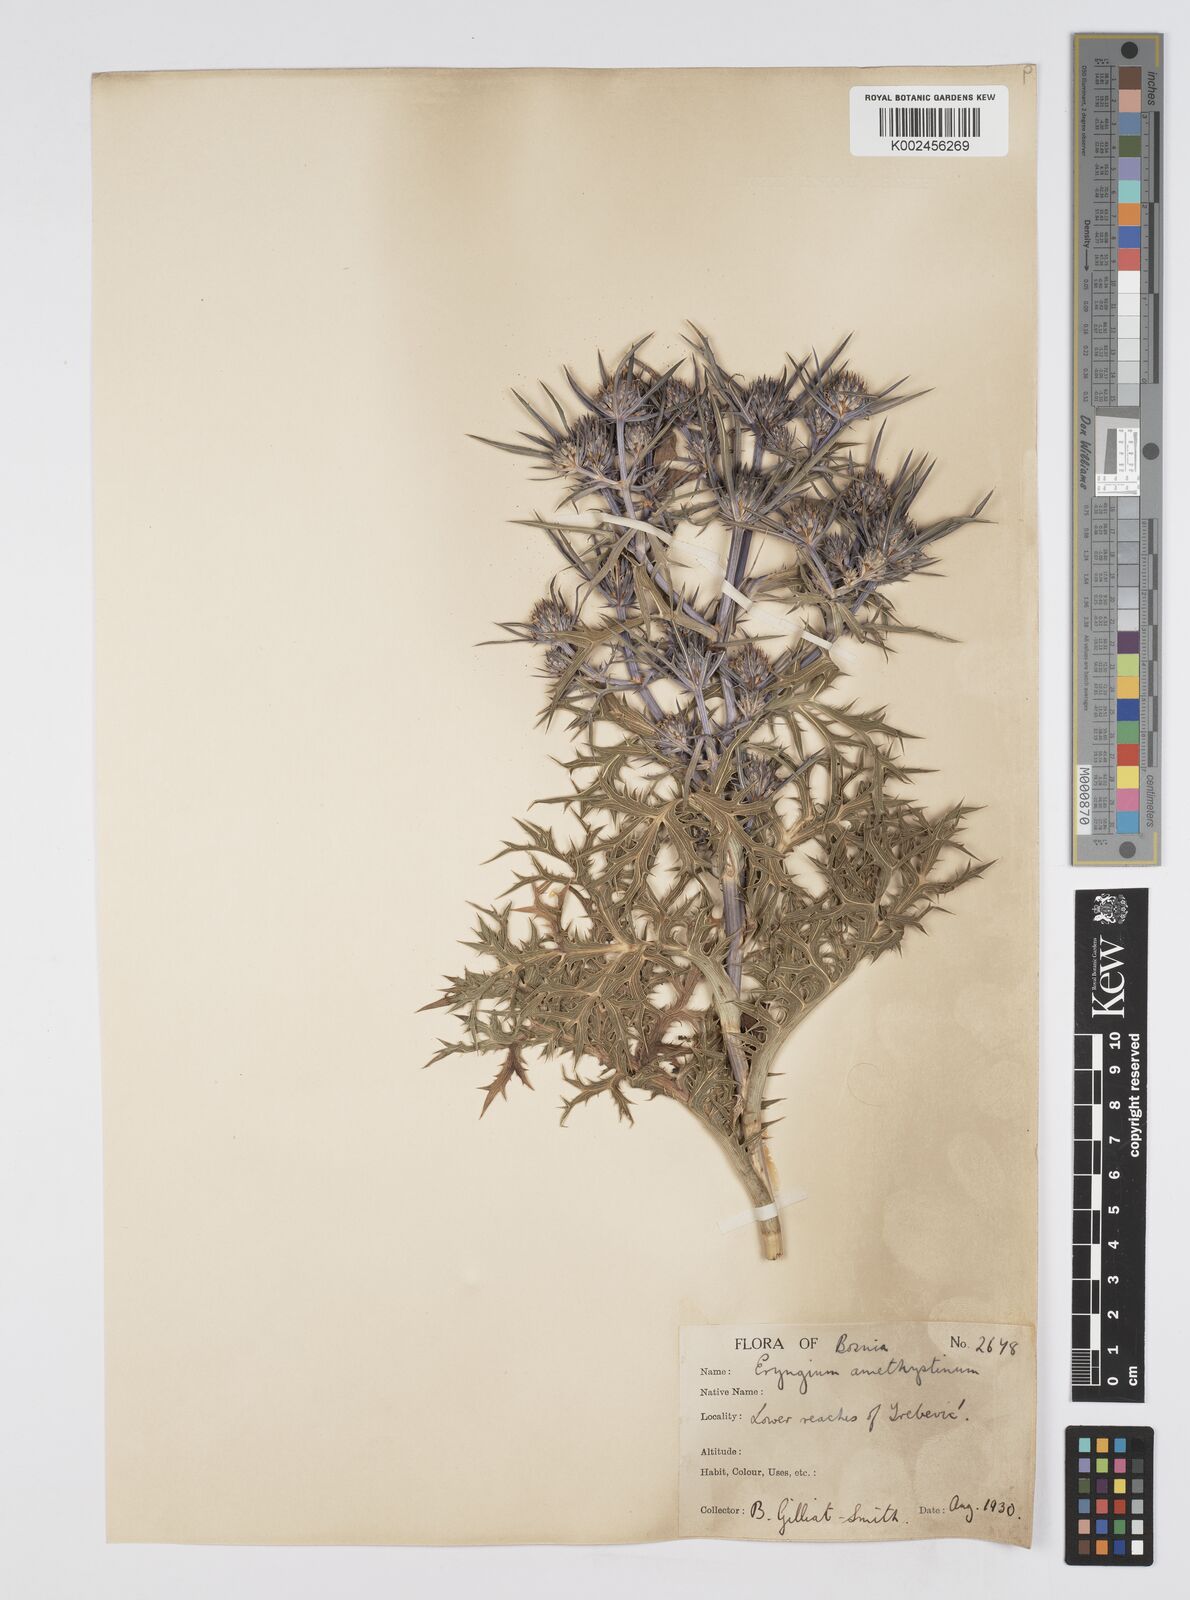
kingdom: Plantae
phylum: Tracheophyta
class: Magnoliopsida
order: Apiales
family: Apiaceae
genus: Eryngium
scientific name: Eryngium amethystinum
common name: Amethyst eryngo
